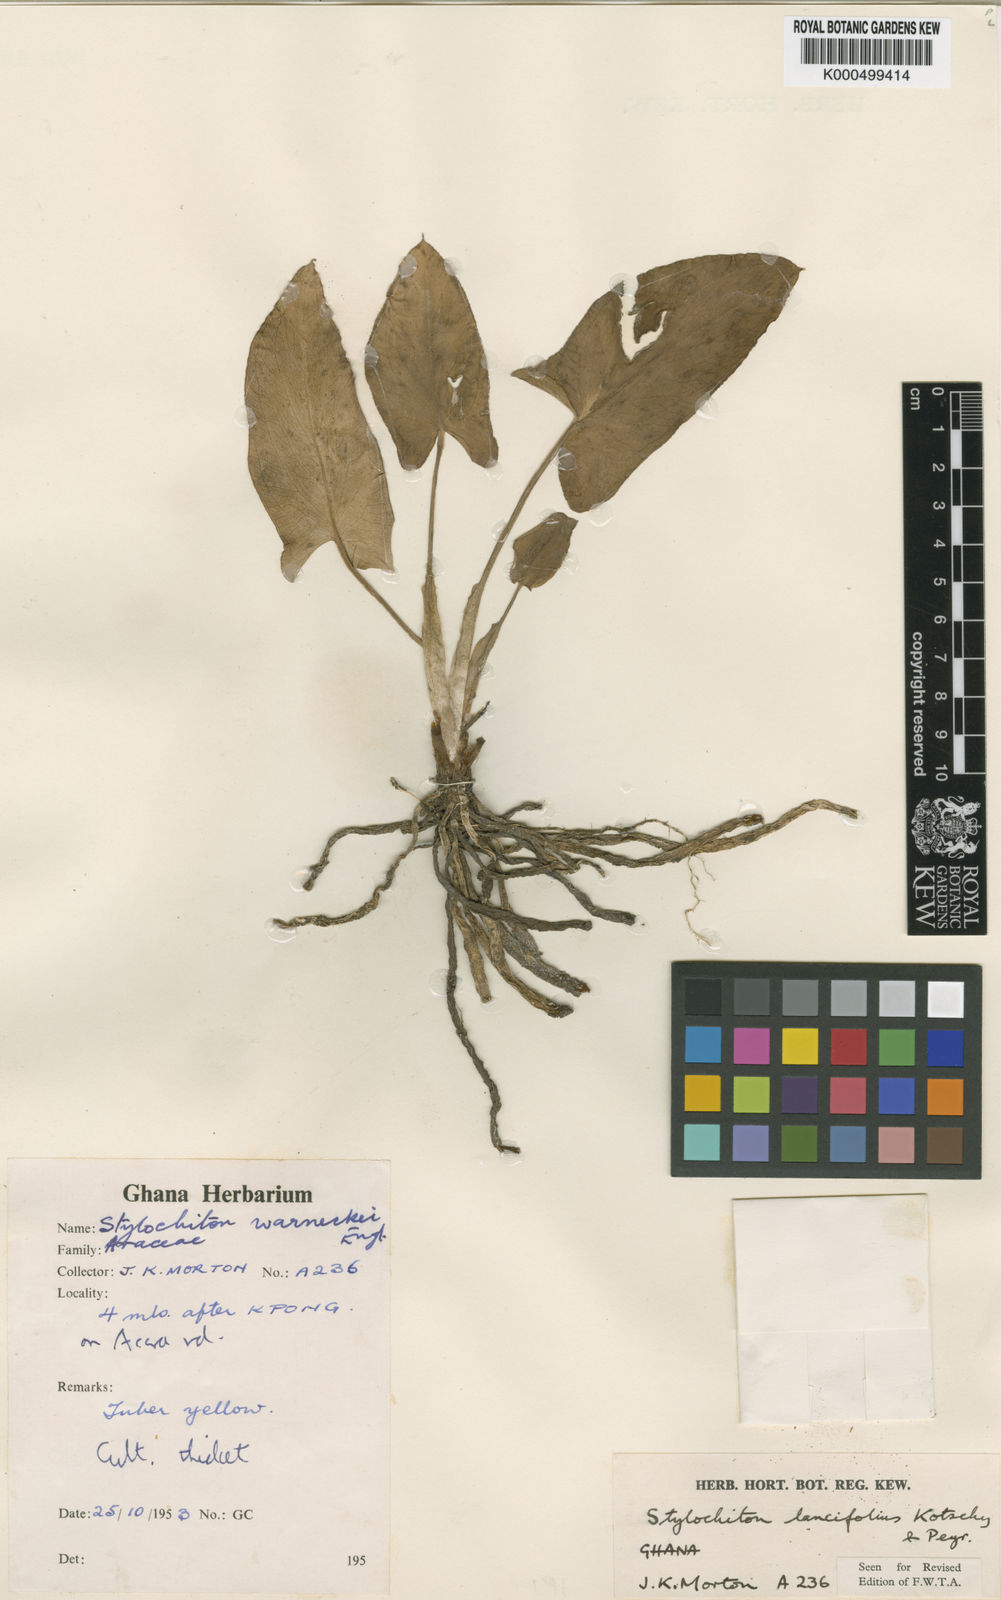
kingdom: Plantae
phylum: Tracheophyta
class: Liliopsida
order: Alismatales
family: Araceae
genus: Stylochaeton
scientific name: Stylochaeton lancifolium
